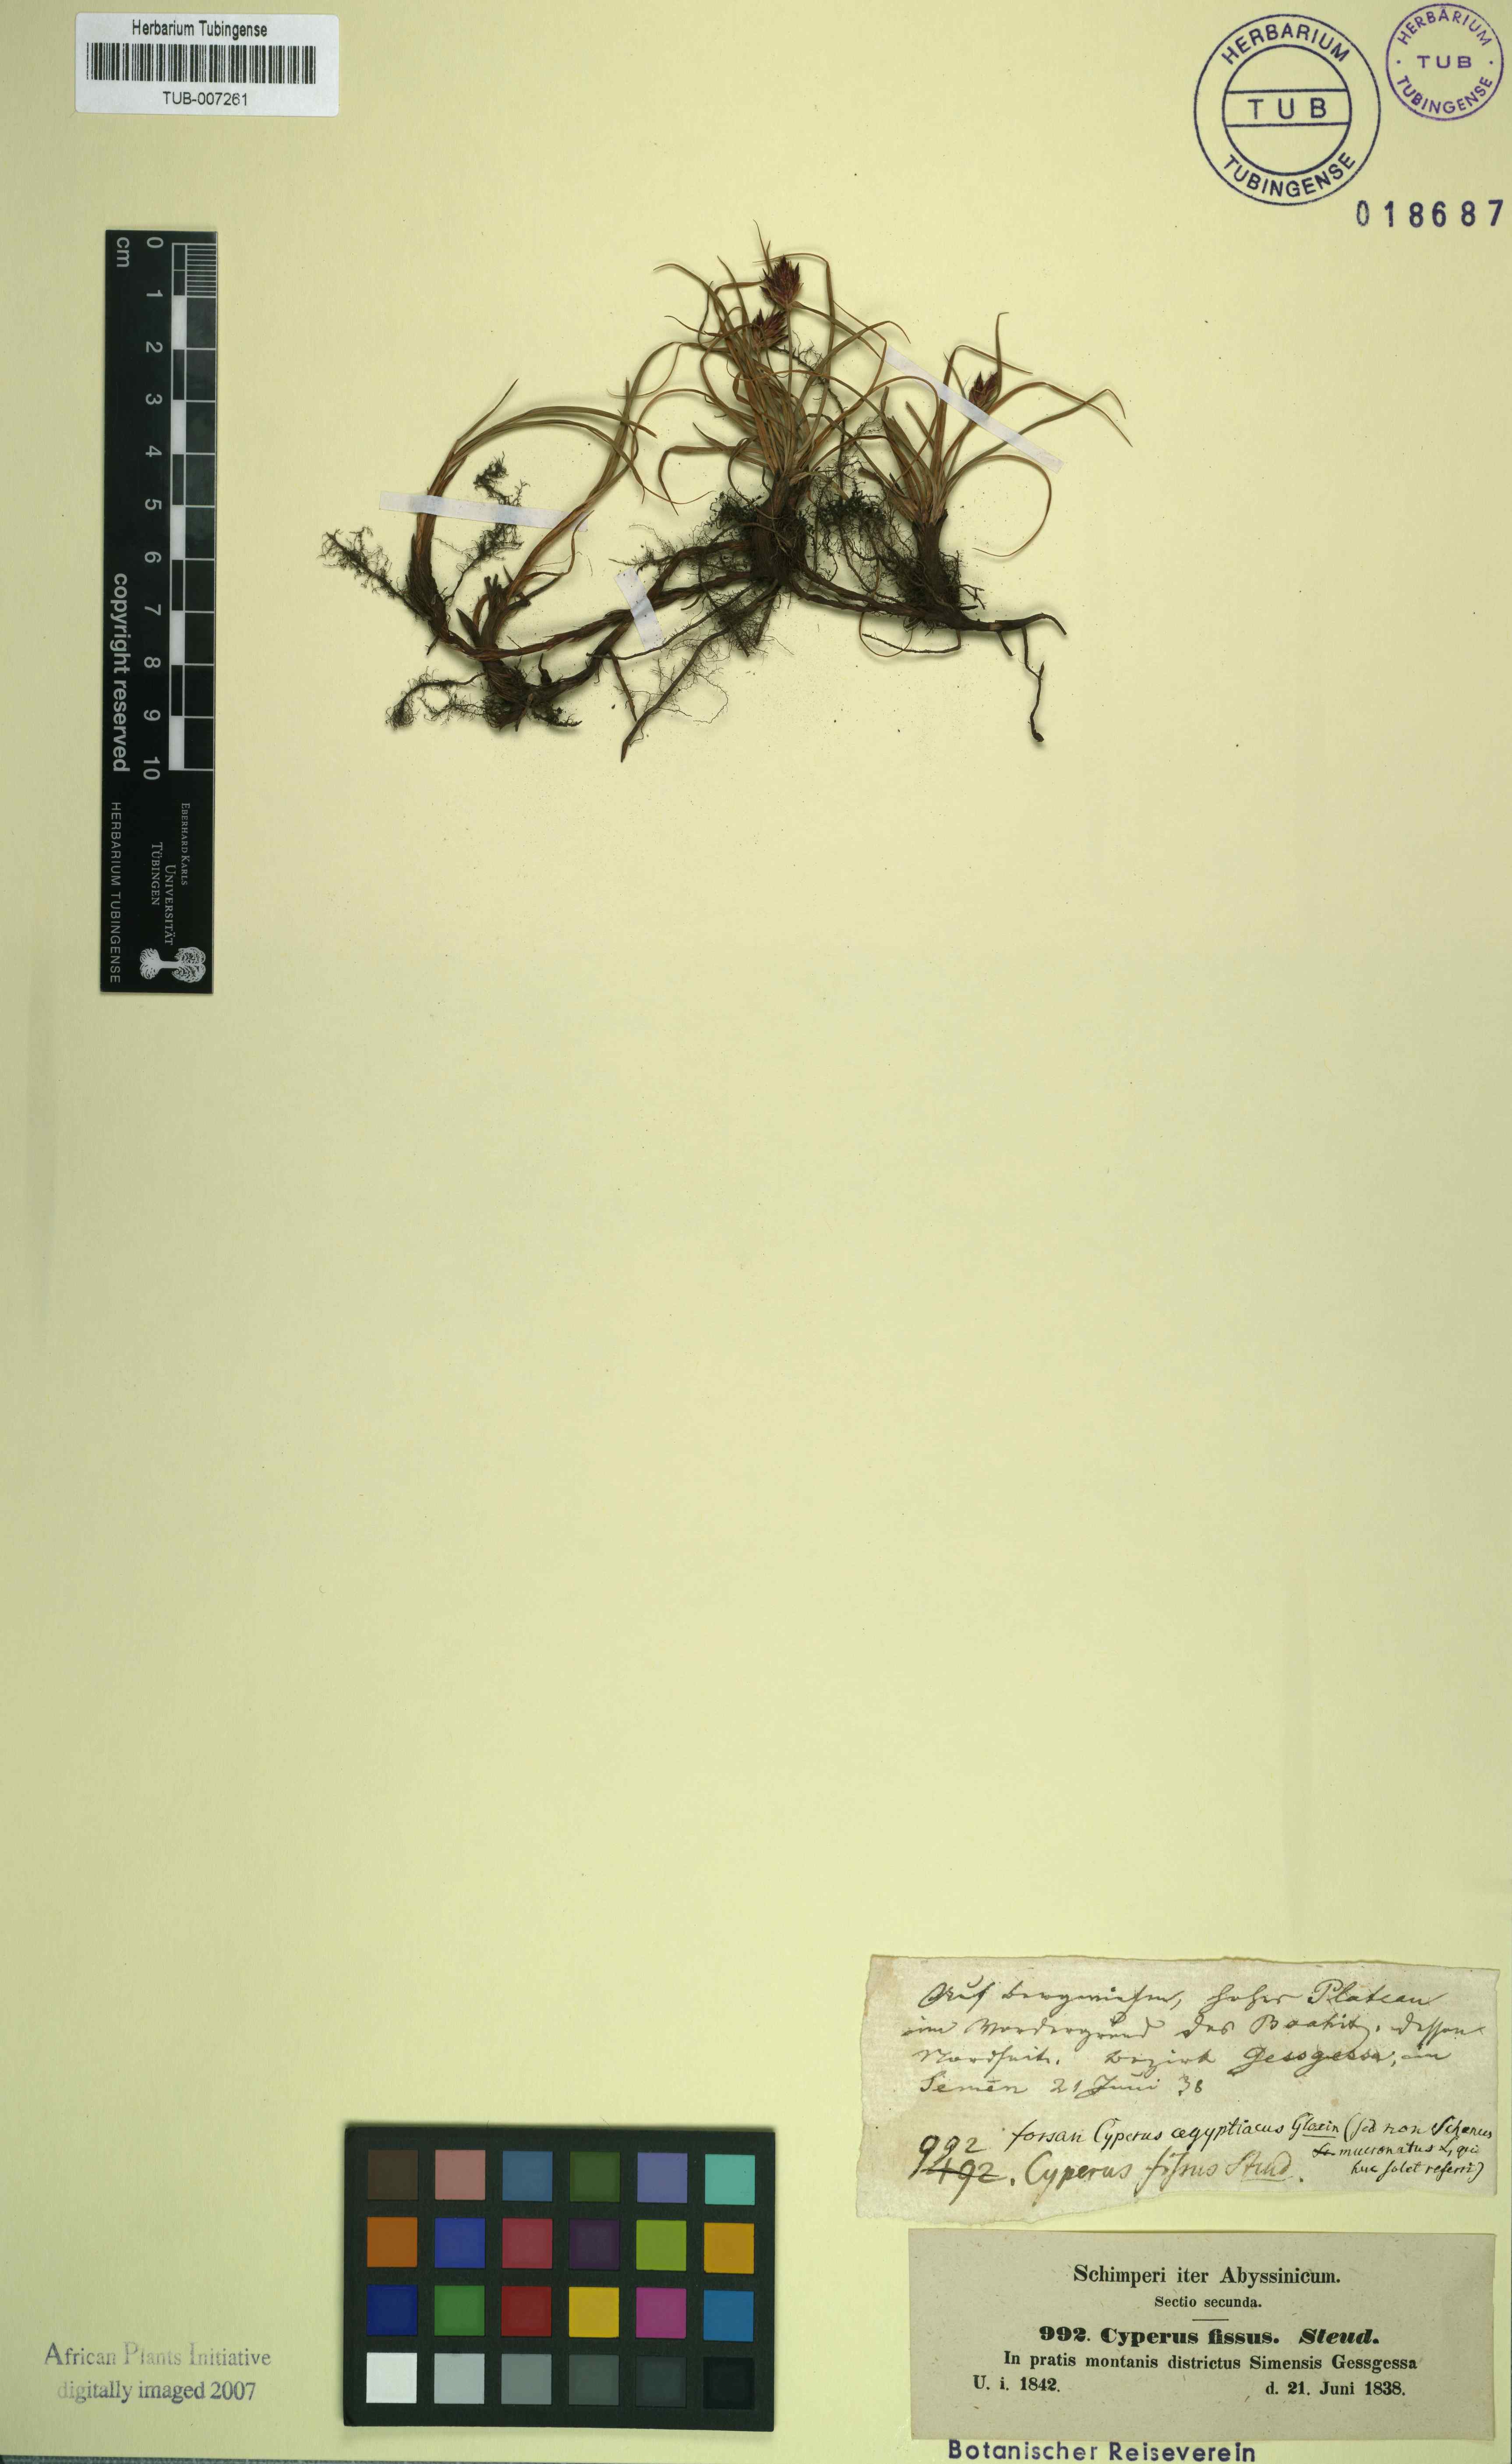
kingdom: Plantae
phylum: Tracheophyta
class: Liliopsida
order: Poales
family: Cyperaceae
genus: Cyperus
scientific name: Cyperus fissus
